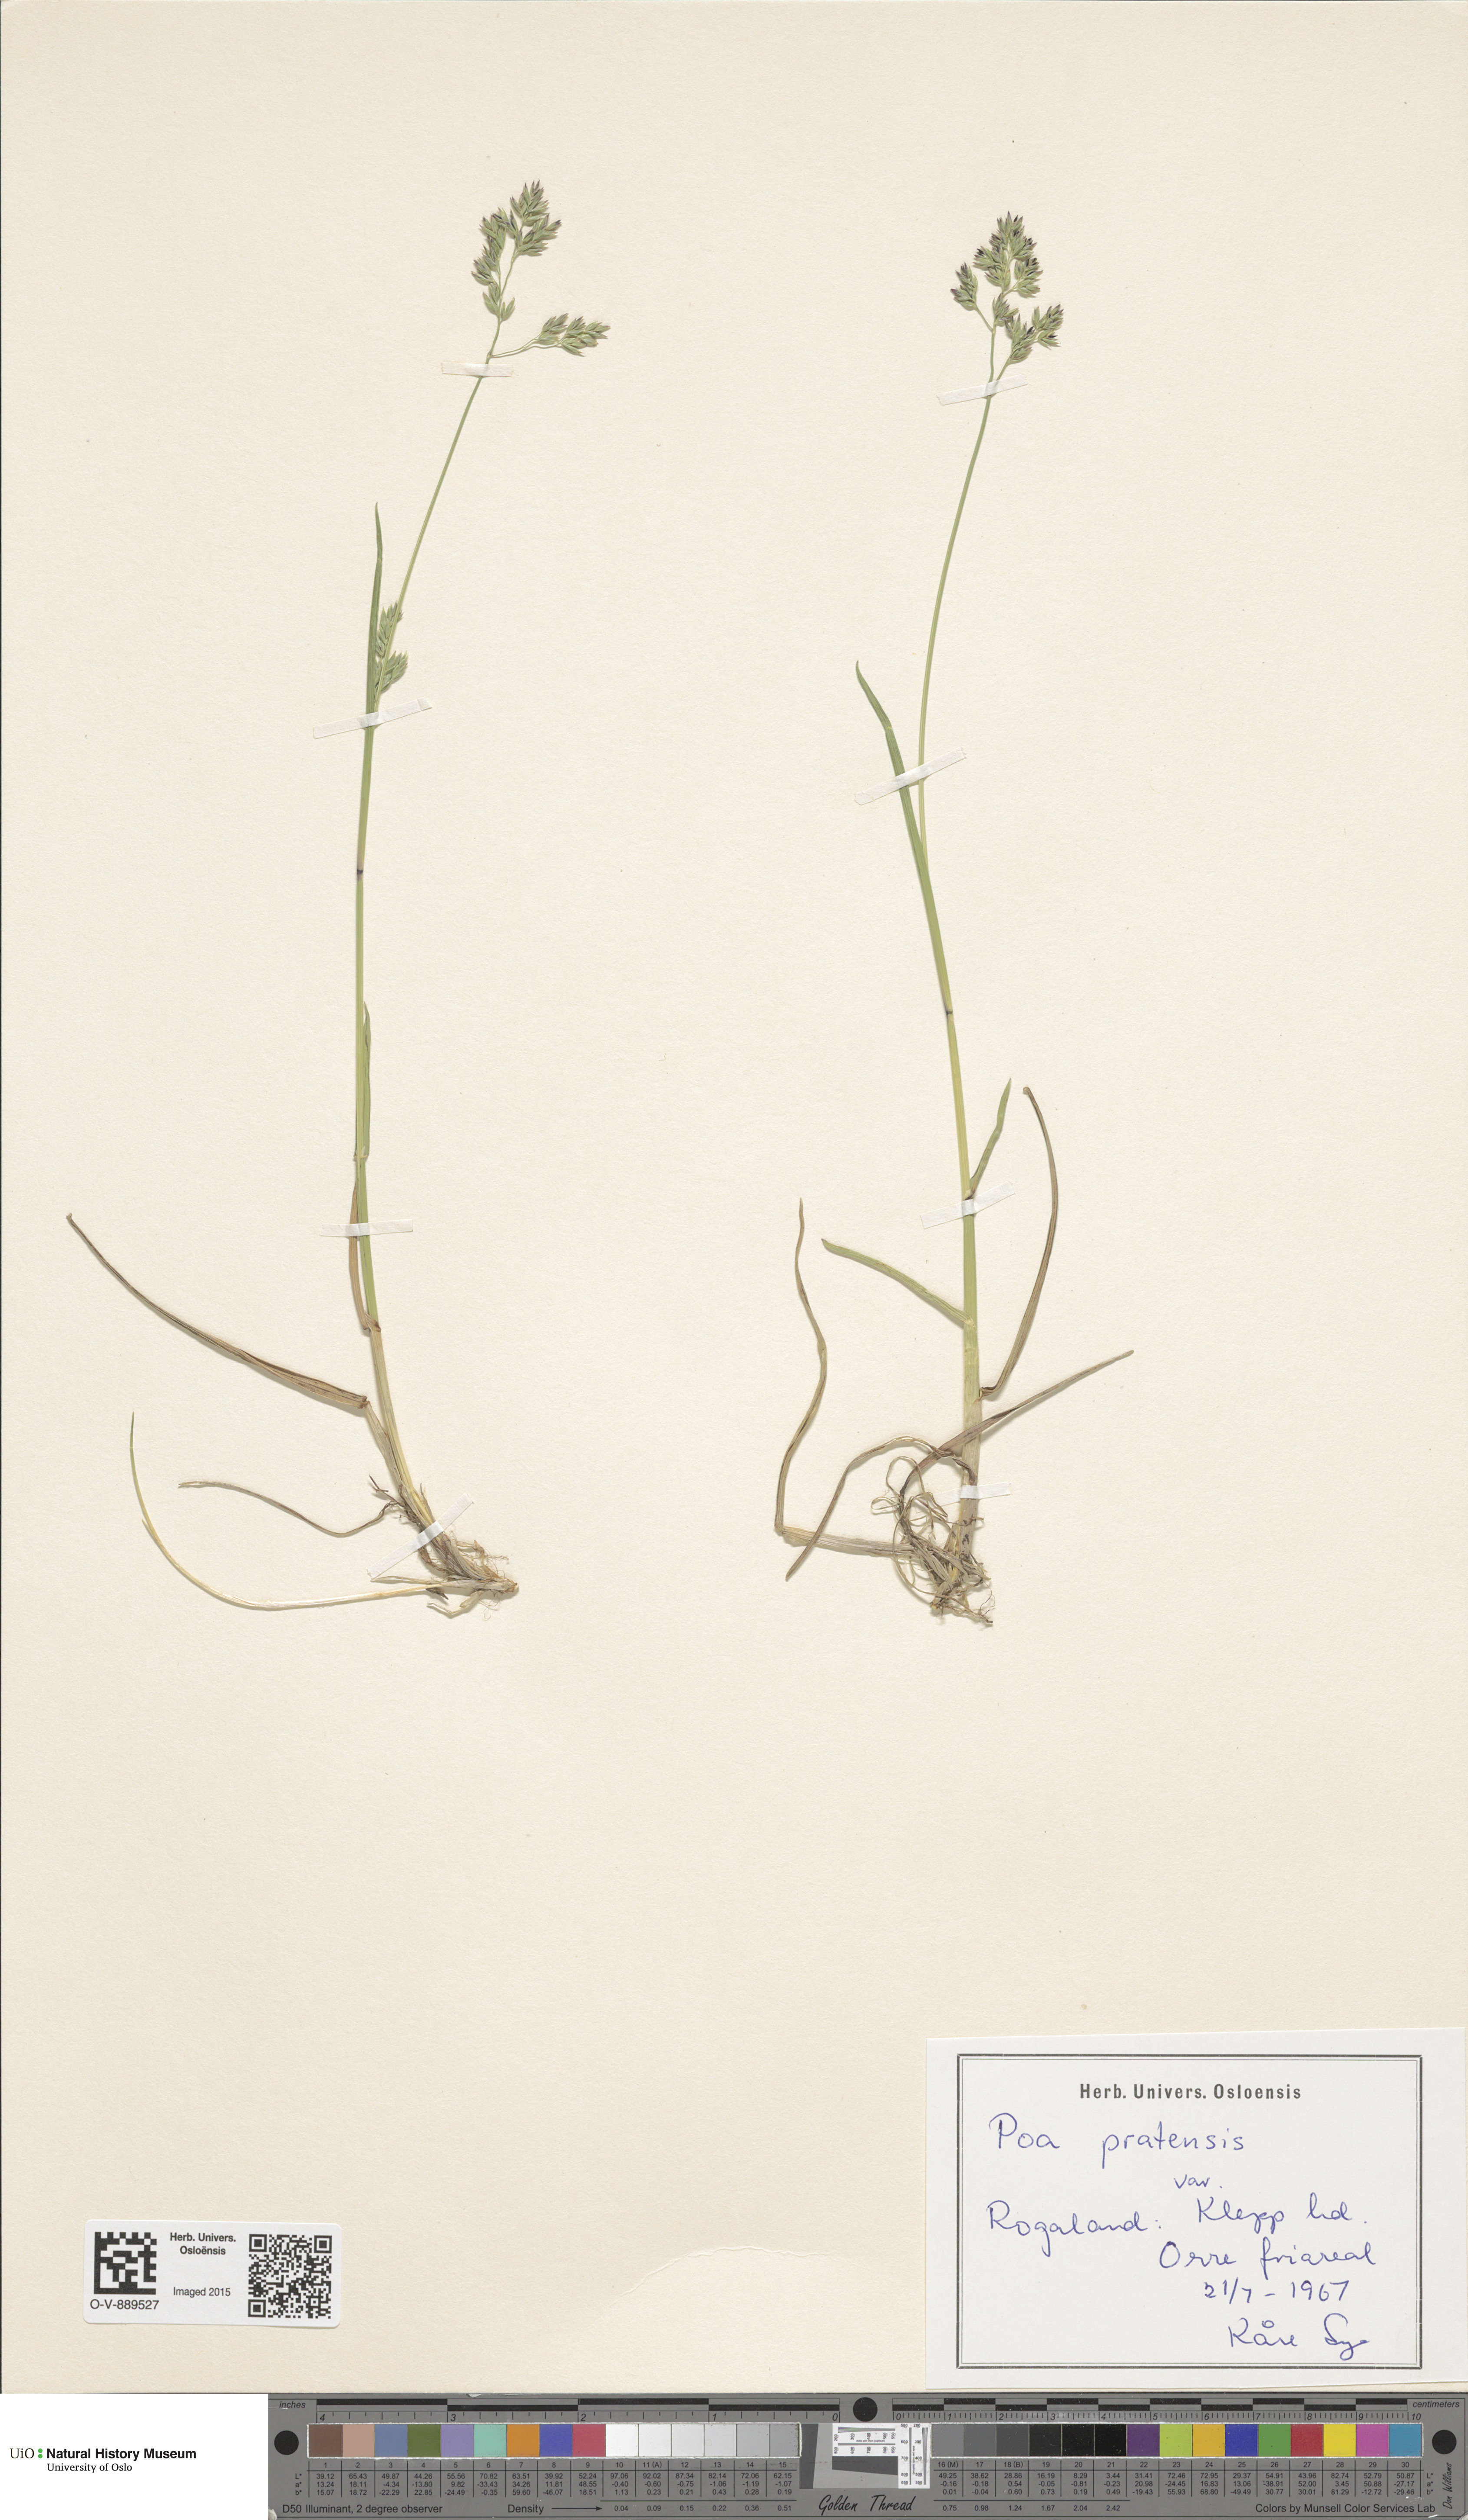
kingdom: Plantae
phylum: Tracheophyta
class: Liliopsida
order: Poales
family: Poaceae
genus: Poa
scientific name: Poa pratensis
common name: Kentucky bluegrass
